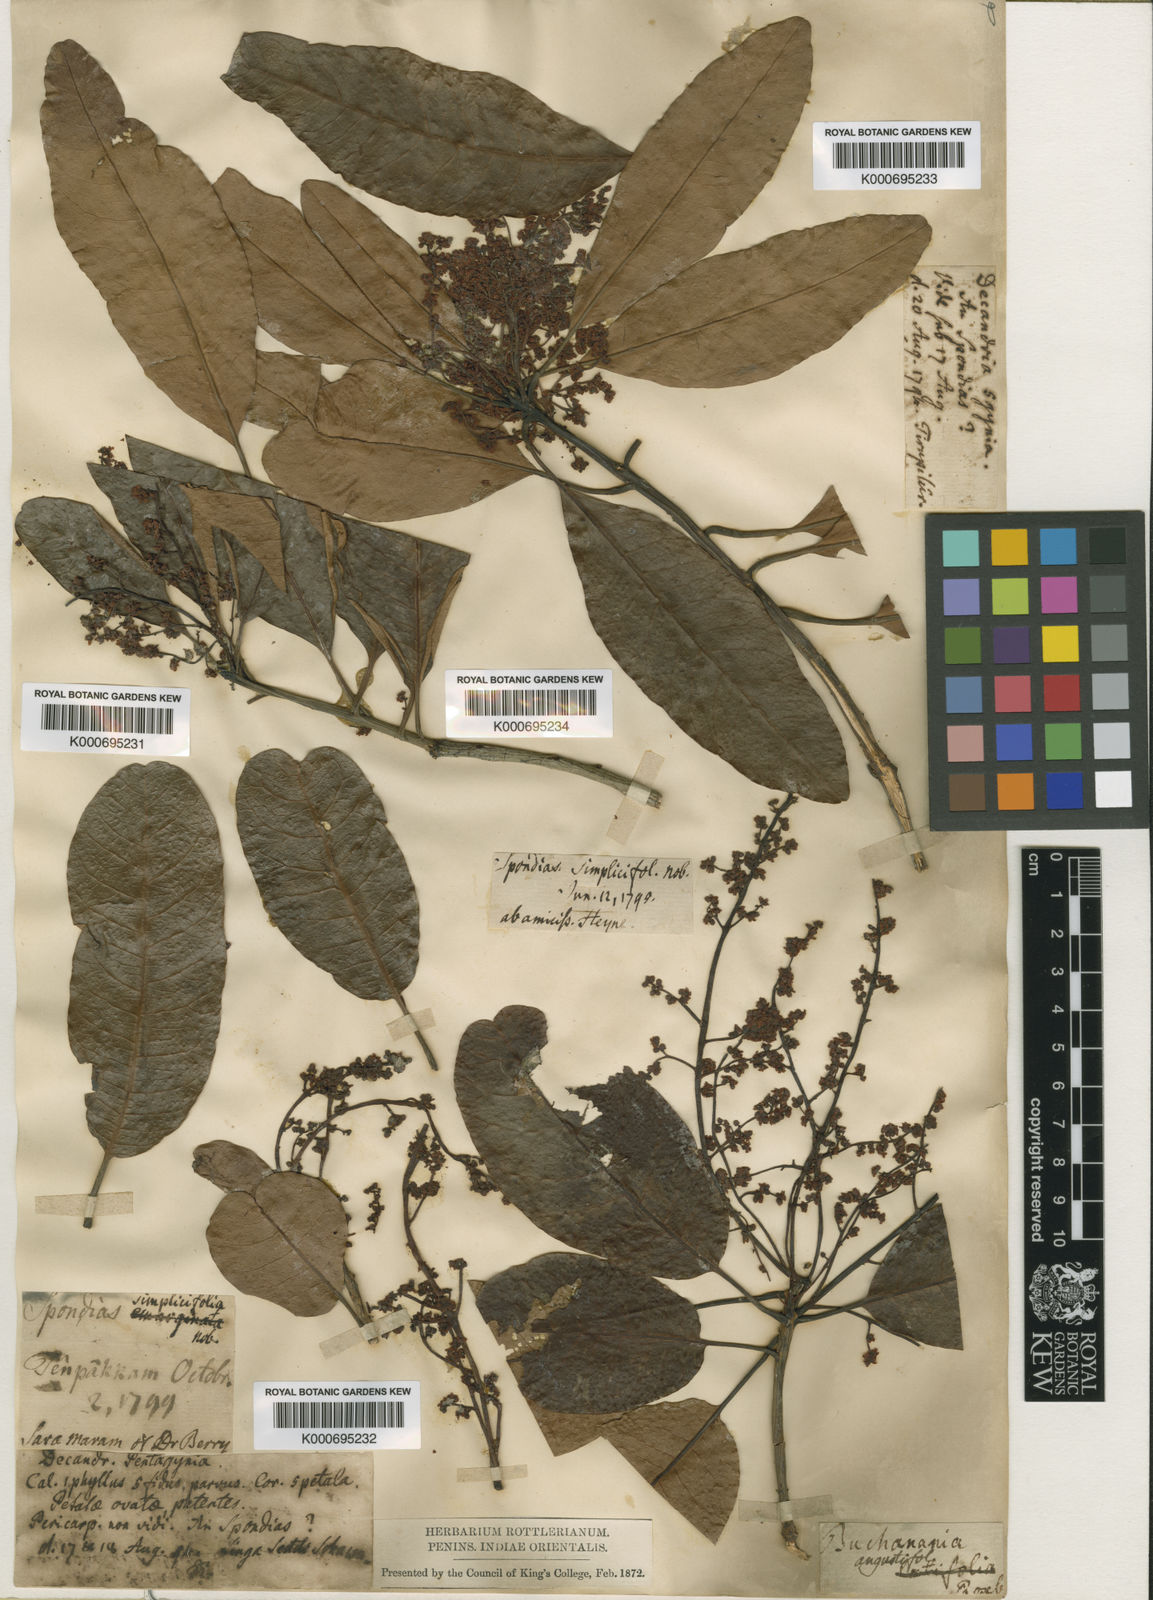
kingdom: Plantae
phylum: Tracheophyta
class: Magnoliopsida
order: Sapindales
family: Anacardiaceae
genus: Buchanania
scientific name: Buchanania axillaris
